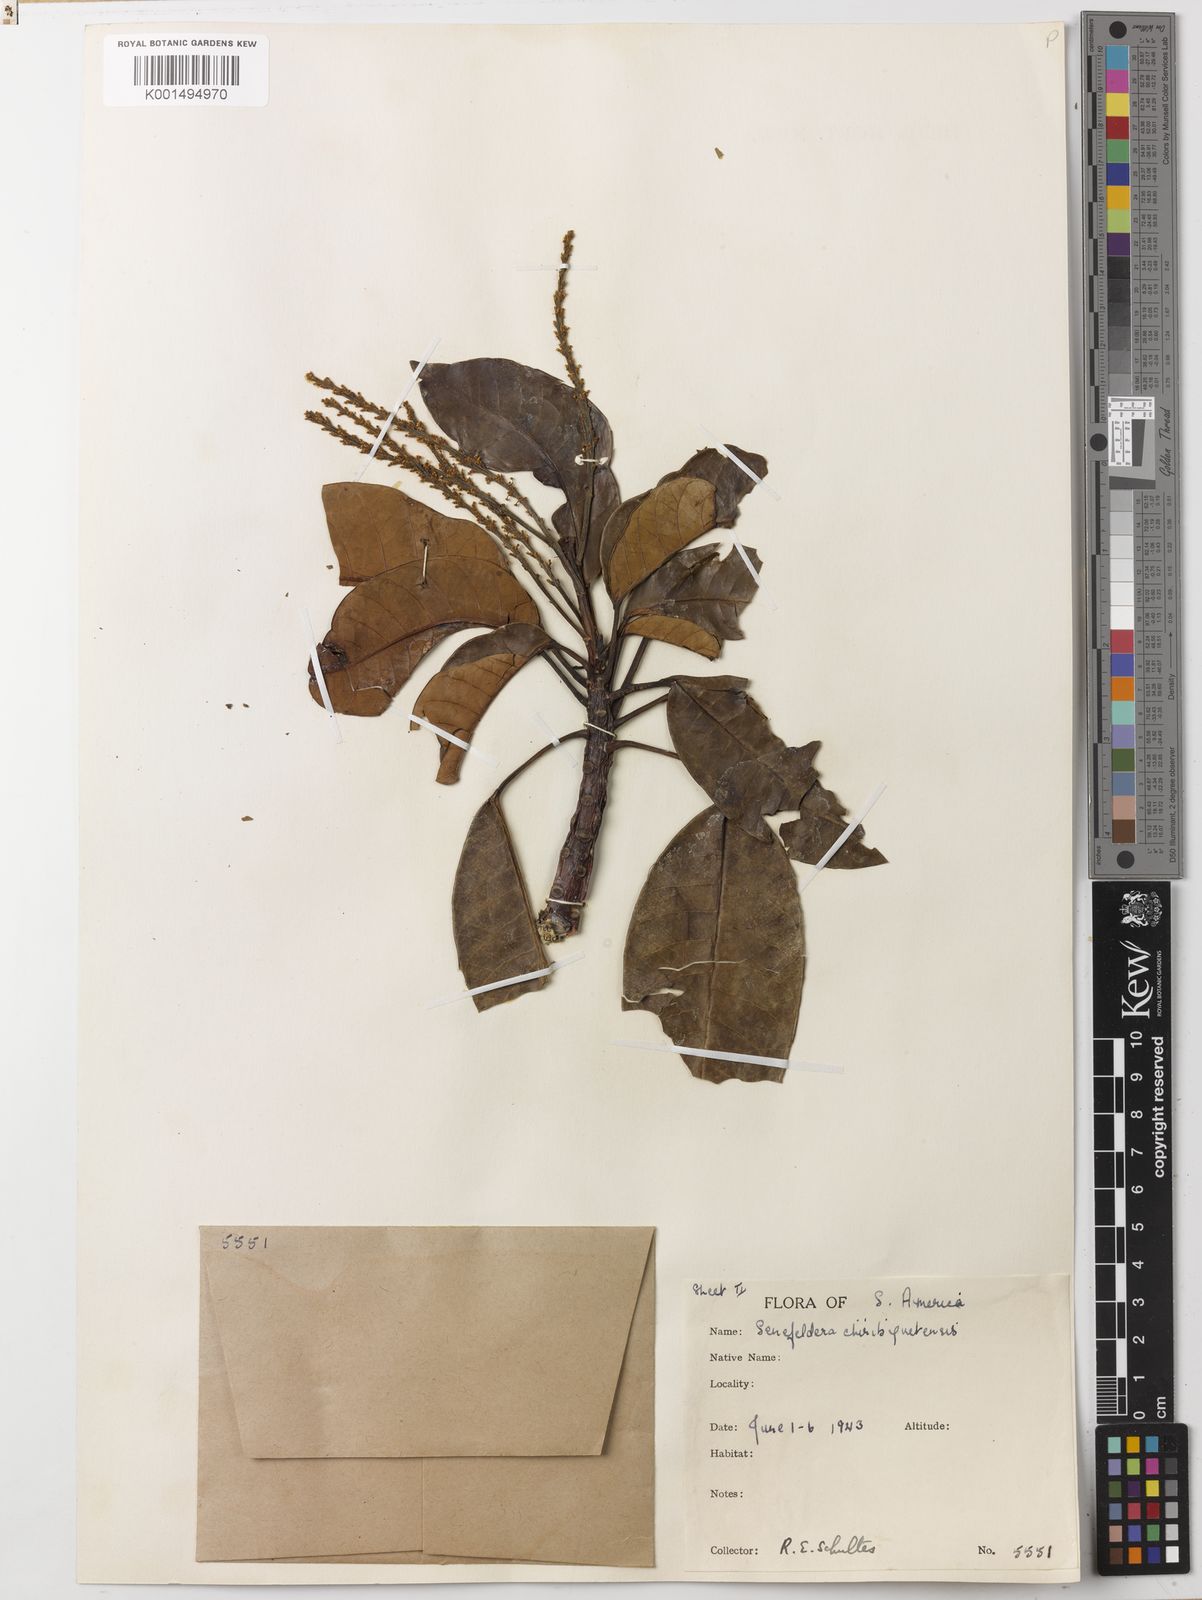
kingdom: Plantae
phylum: Tracheophyta
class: Magnoliopsida
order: Malpighiales
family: Euphorbiaceae
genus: Senefelderopsis
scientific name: Senefelderopsis chiribiquetensis
